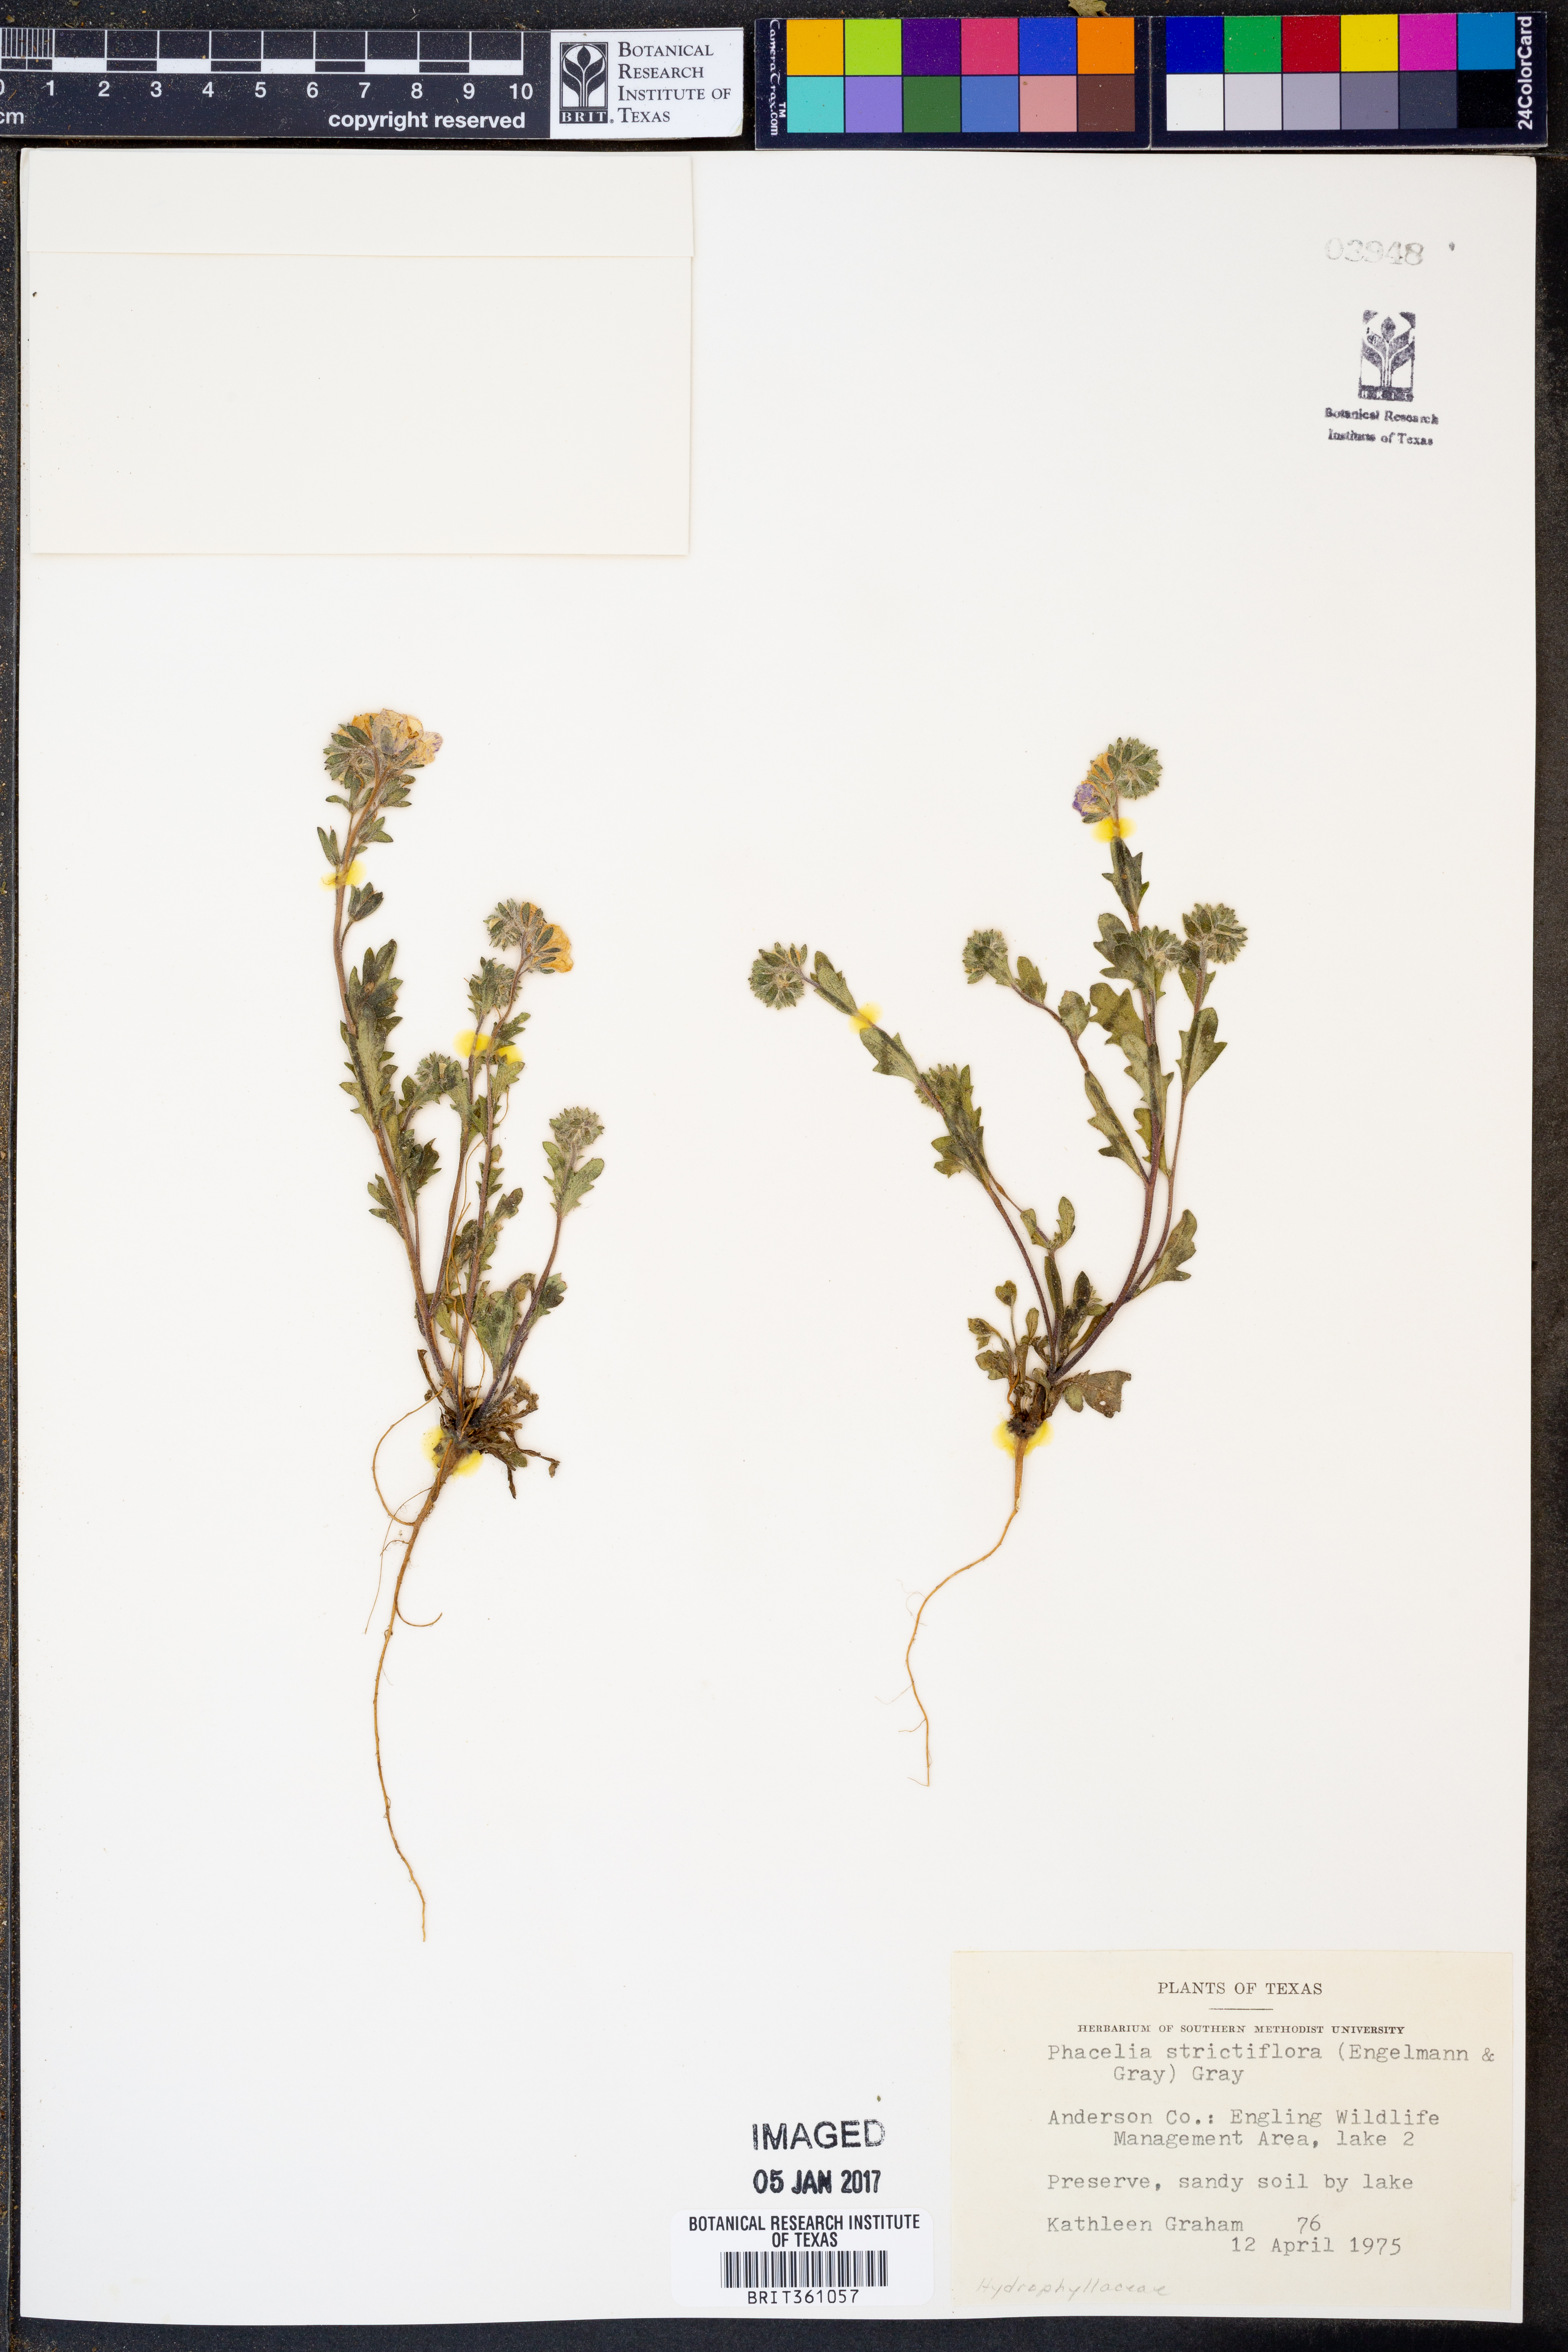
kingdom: Plantae
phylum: Tracheophyta
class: Magnoliopsida
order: Boraginales
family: Hydrophyllaceae
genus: Phacelia
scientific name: Phacelia strictiflora
